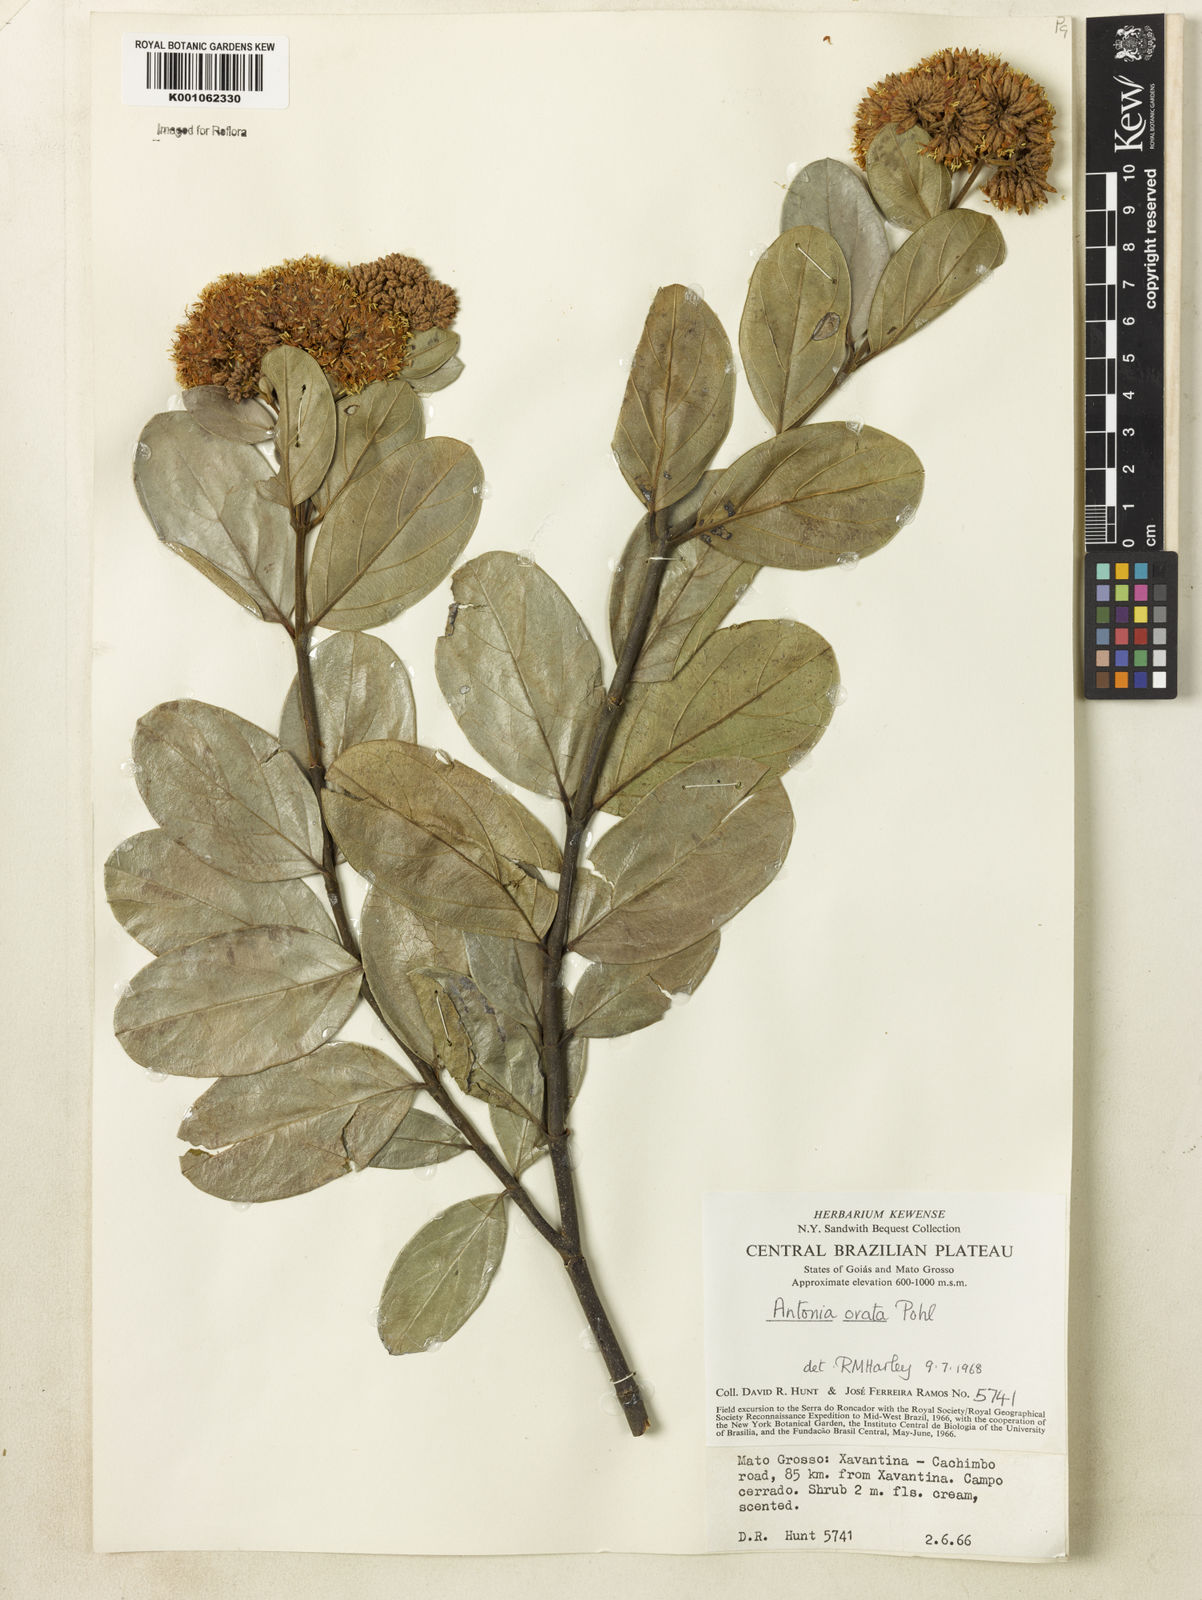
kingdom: Plantae
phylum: Tracheophyta
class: Magnoliopsida
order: Gentianales
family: Loganiaceae
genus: Antonia
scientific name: Antonia ovata
